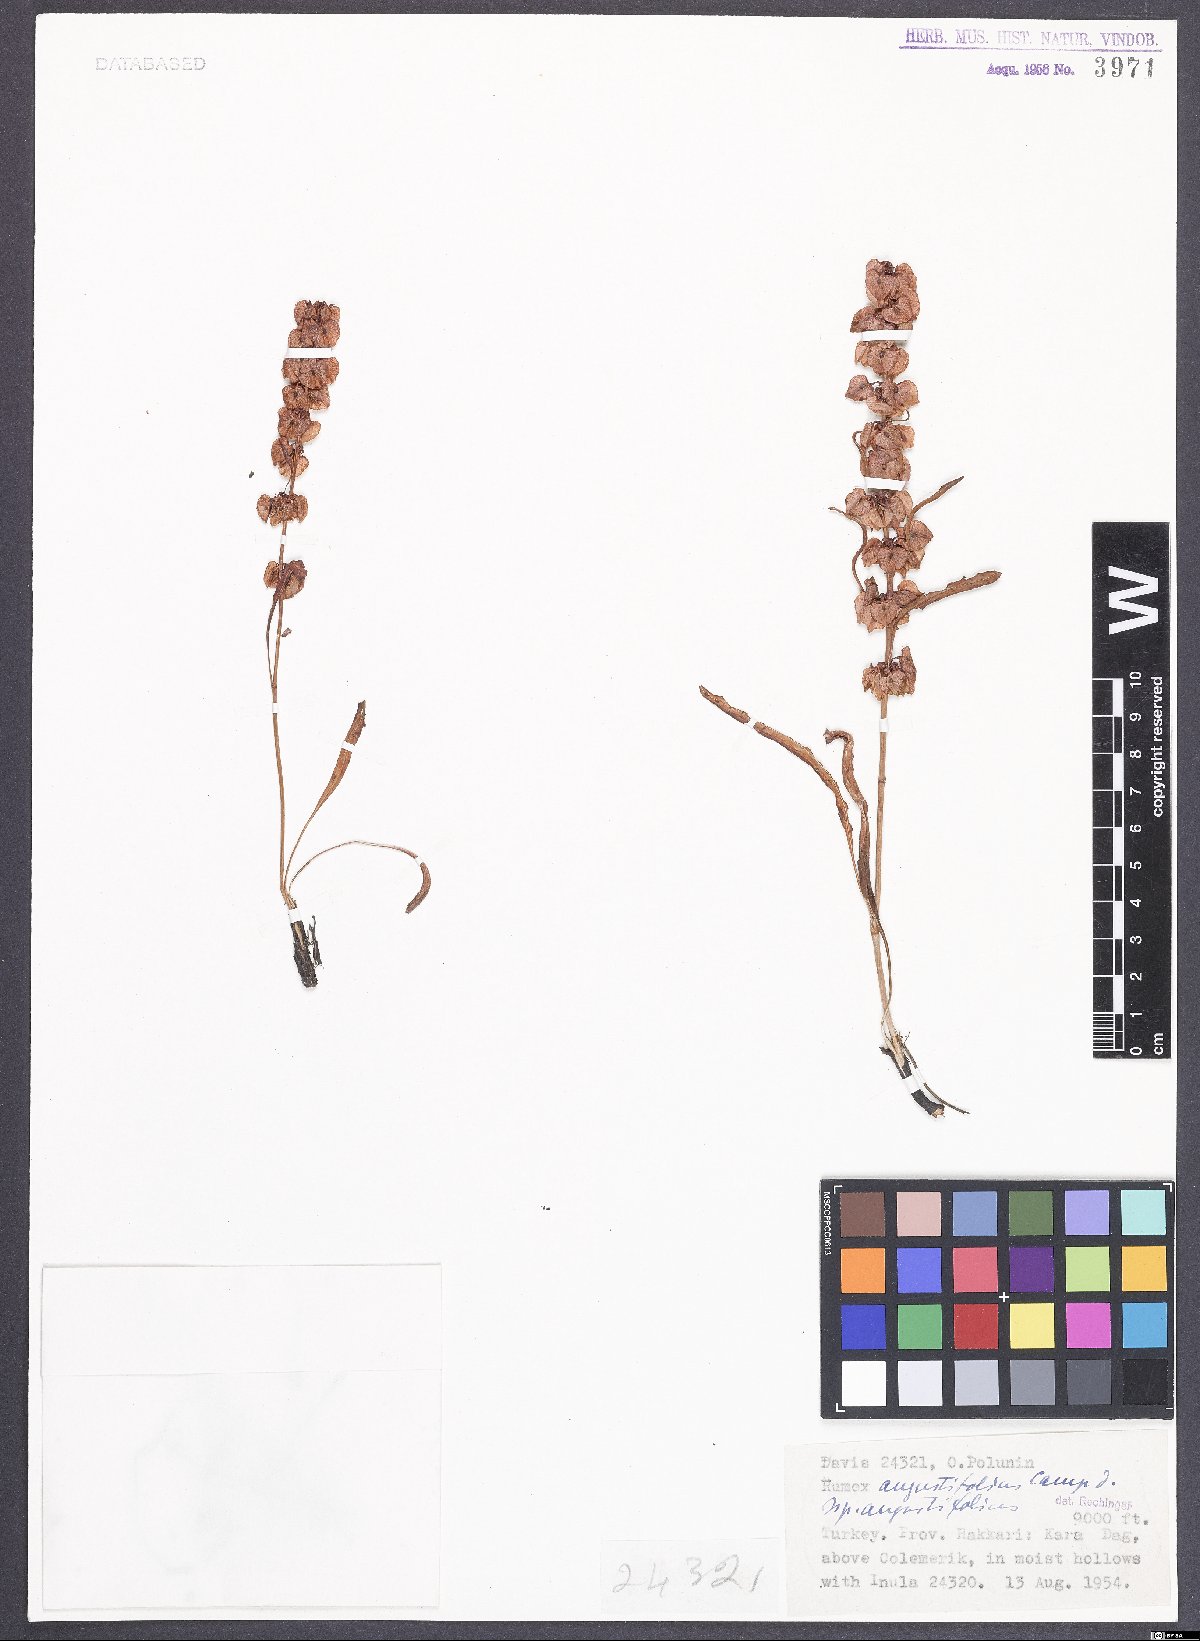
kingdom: Plantae
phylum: Tracheophyta
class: Magnoliopsida
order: Caryophyllales
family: Polygonaceae
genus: Rumex
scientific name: Rumex angustifolius
